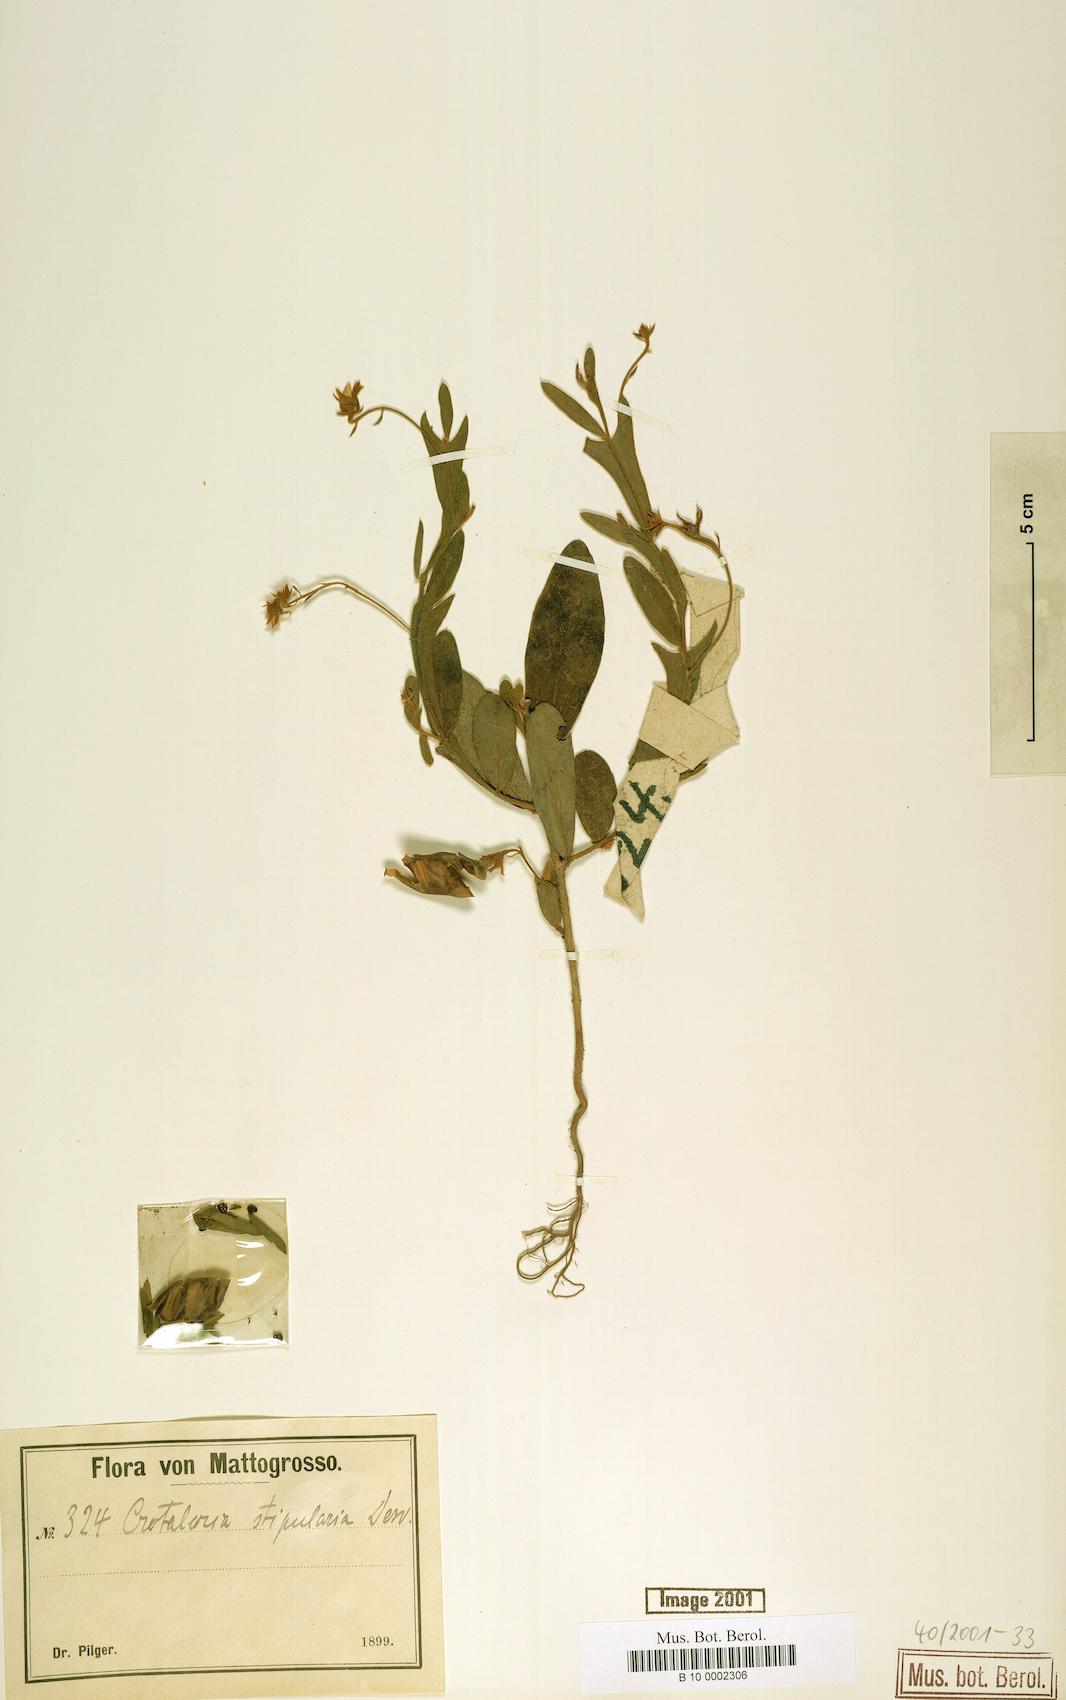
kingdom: Plantae
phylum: Tracheophyta
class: Magnoliopsida
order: Fabales
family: Fabaceae
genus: Crotalaria
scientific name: Crotalaria stipularia
